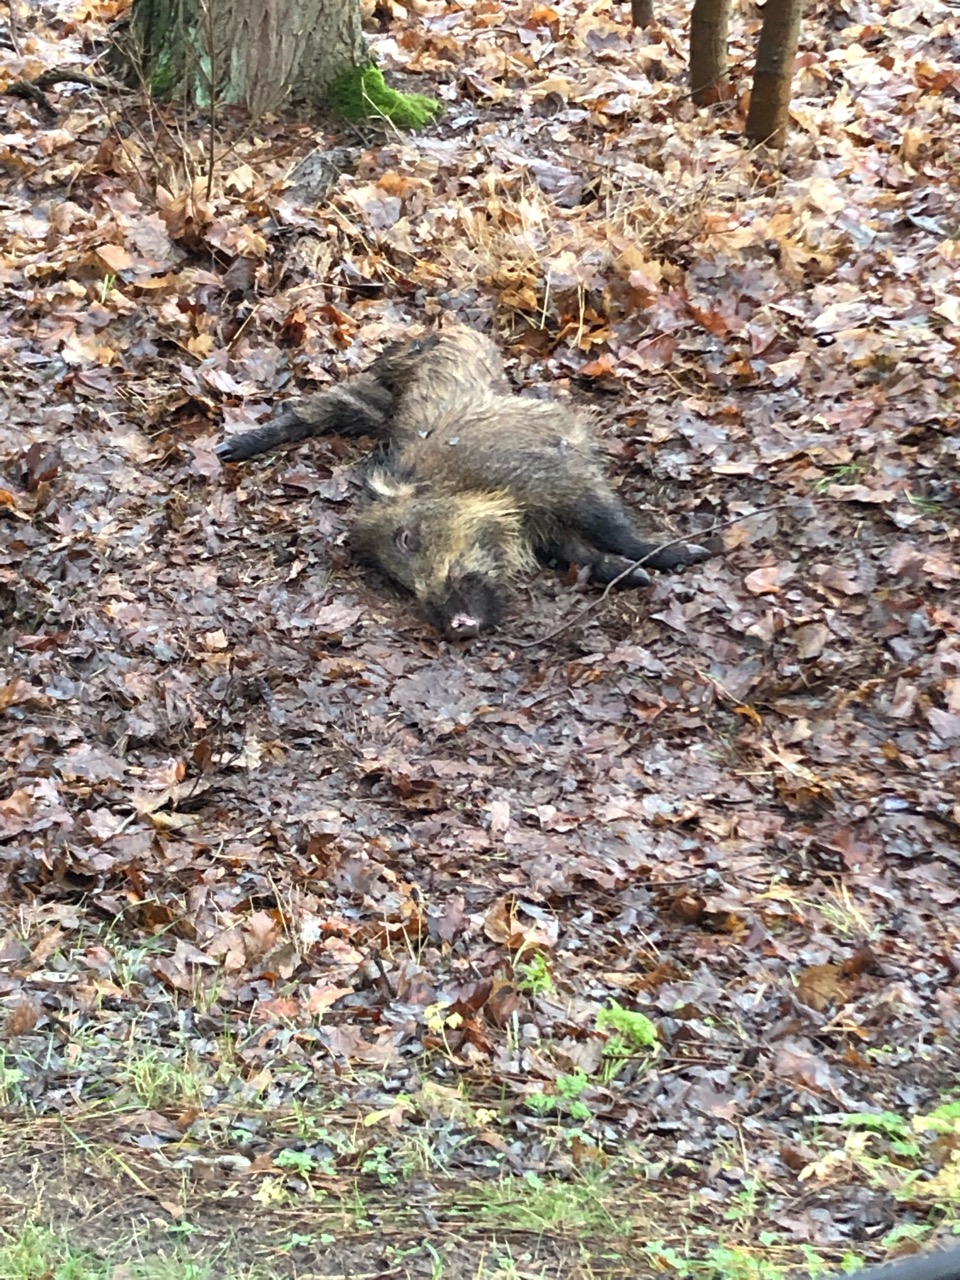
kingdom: Animalia
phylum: Chordata
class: Mammalia
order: Artiodactyla
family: Suidae
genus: Sus
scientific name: Sus scrofa
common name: Wild boar
